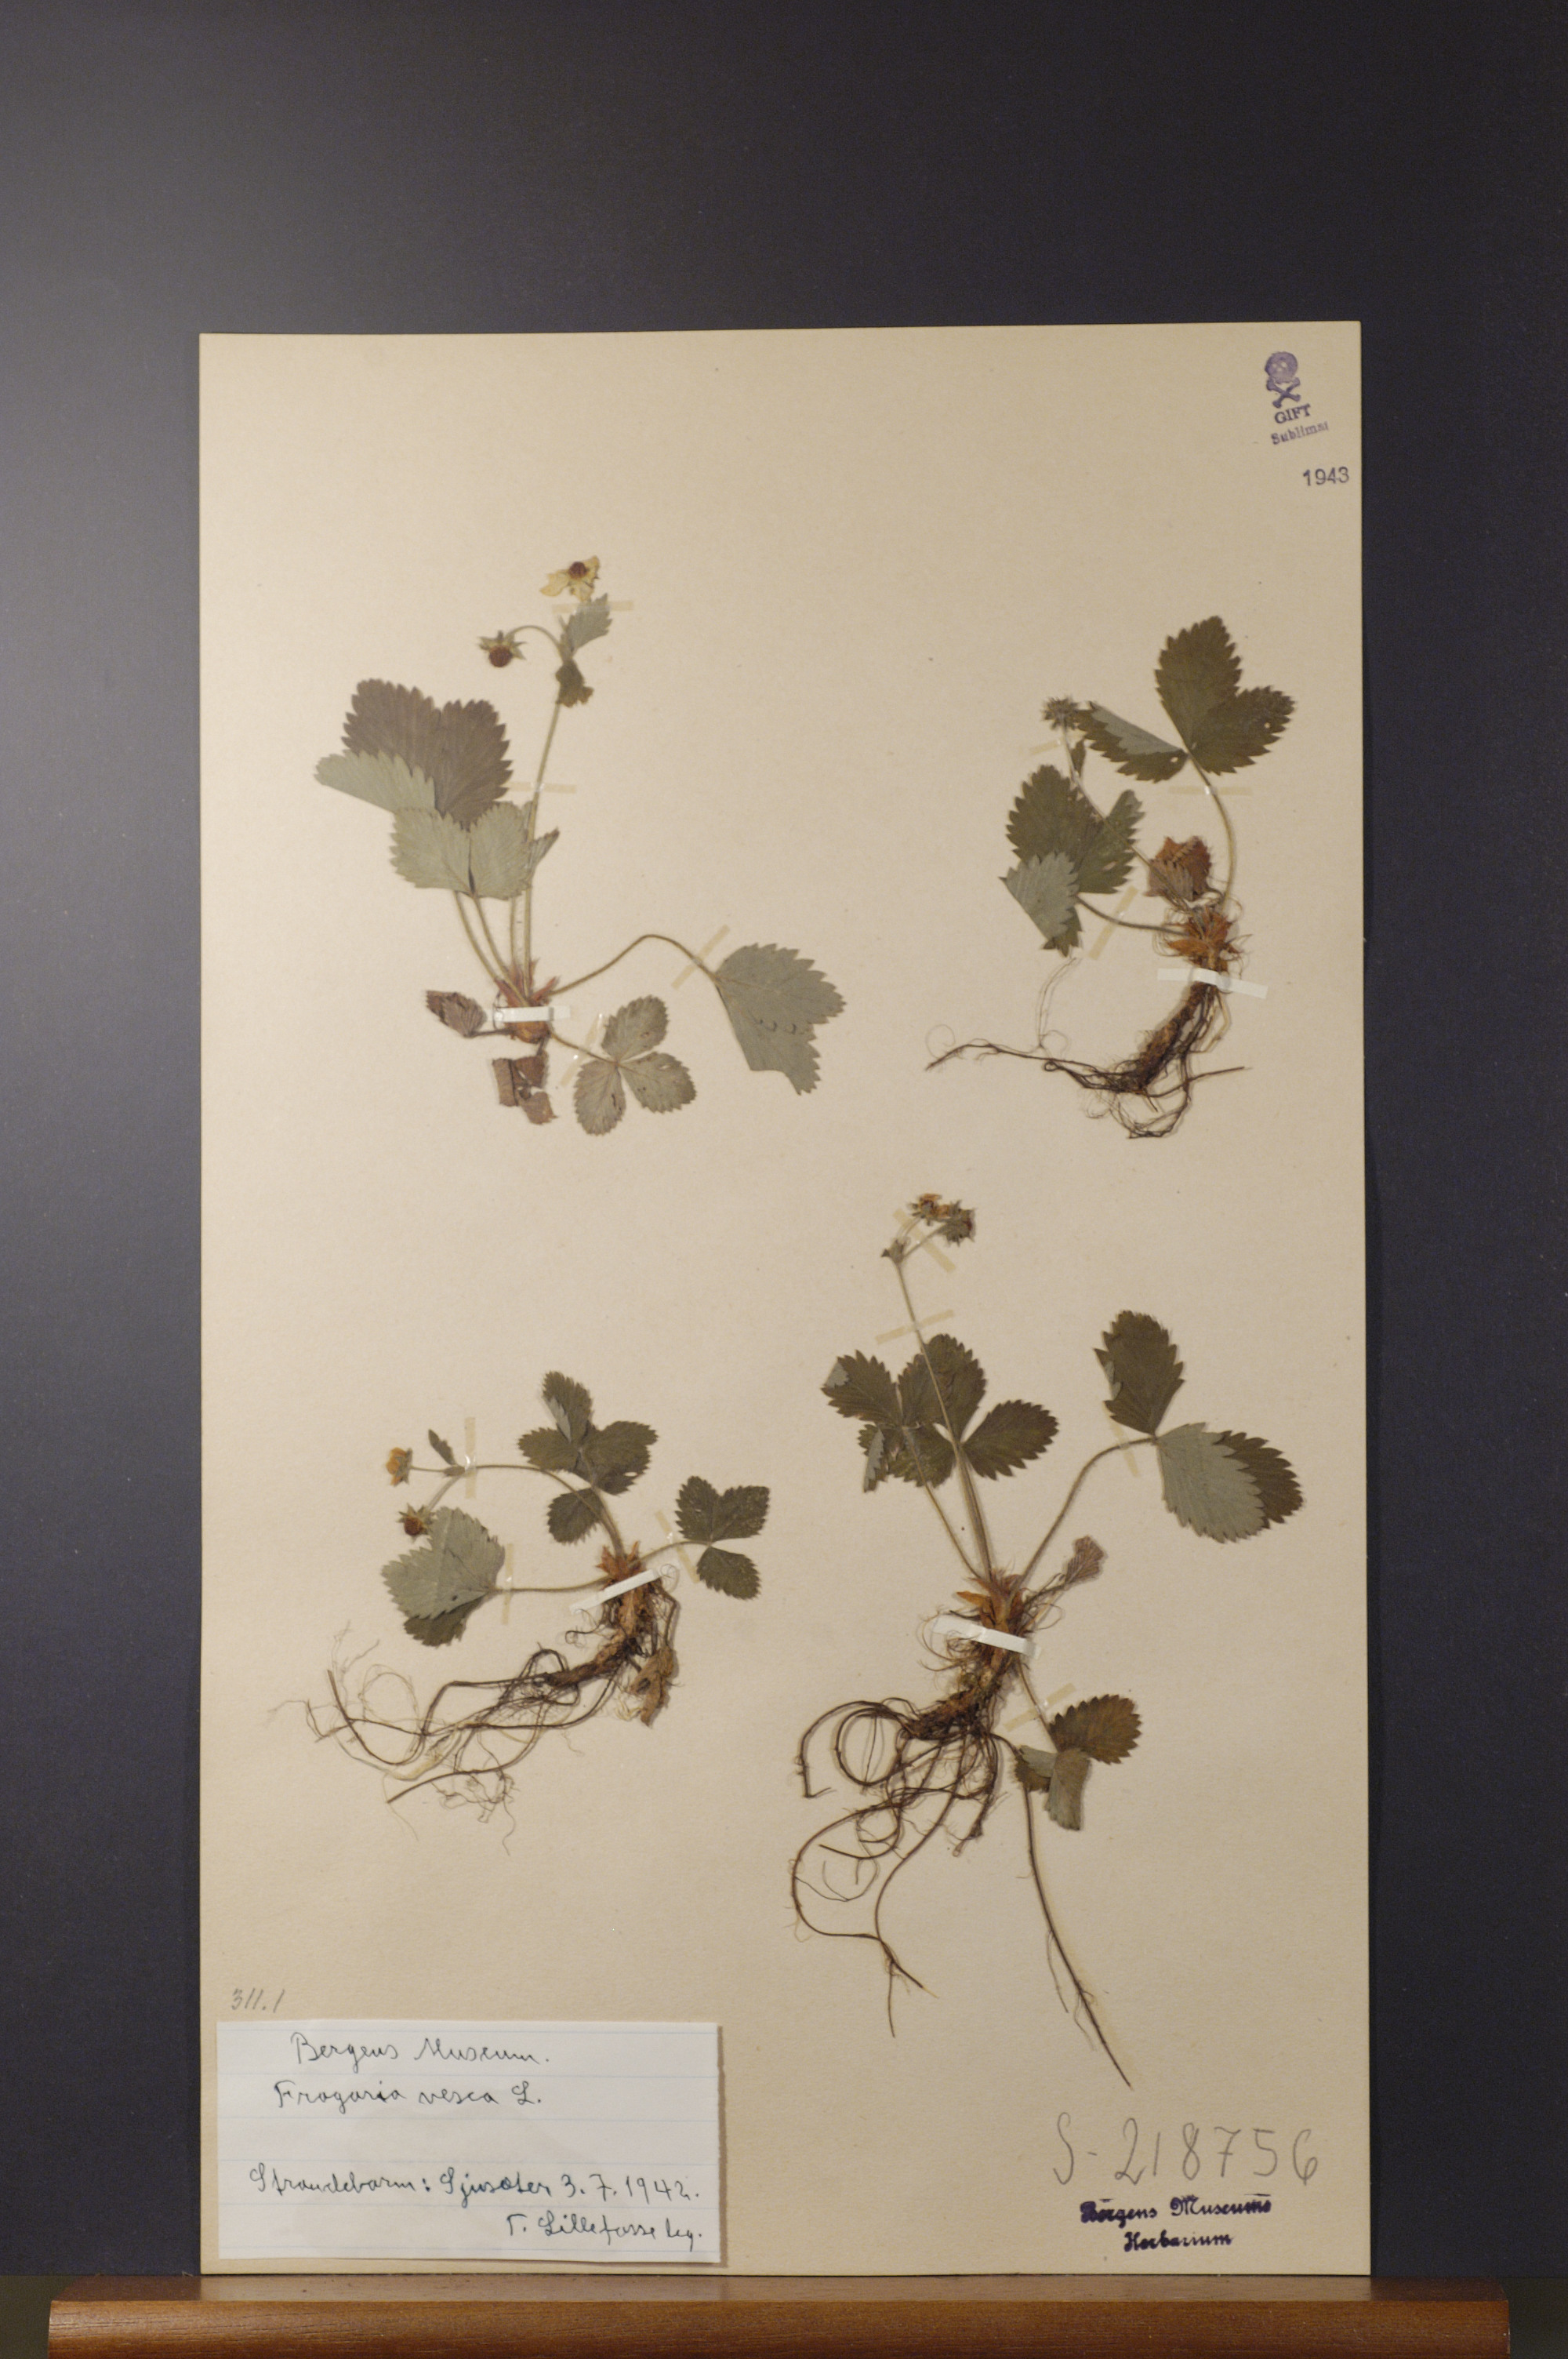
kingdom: Plantae
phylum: Tracheophyta
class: Magnoliopsida
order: Rosales
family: Rosaceae
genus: Fragaria
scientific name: Fragaria vesca
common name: Wild strawberry
